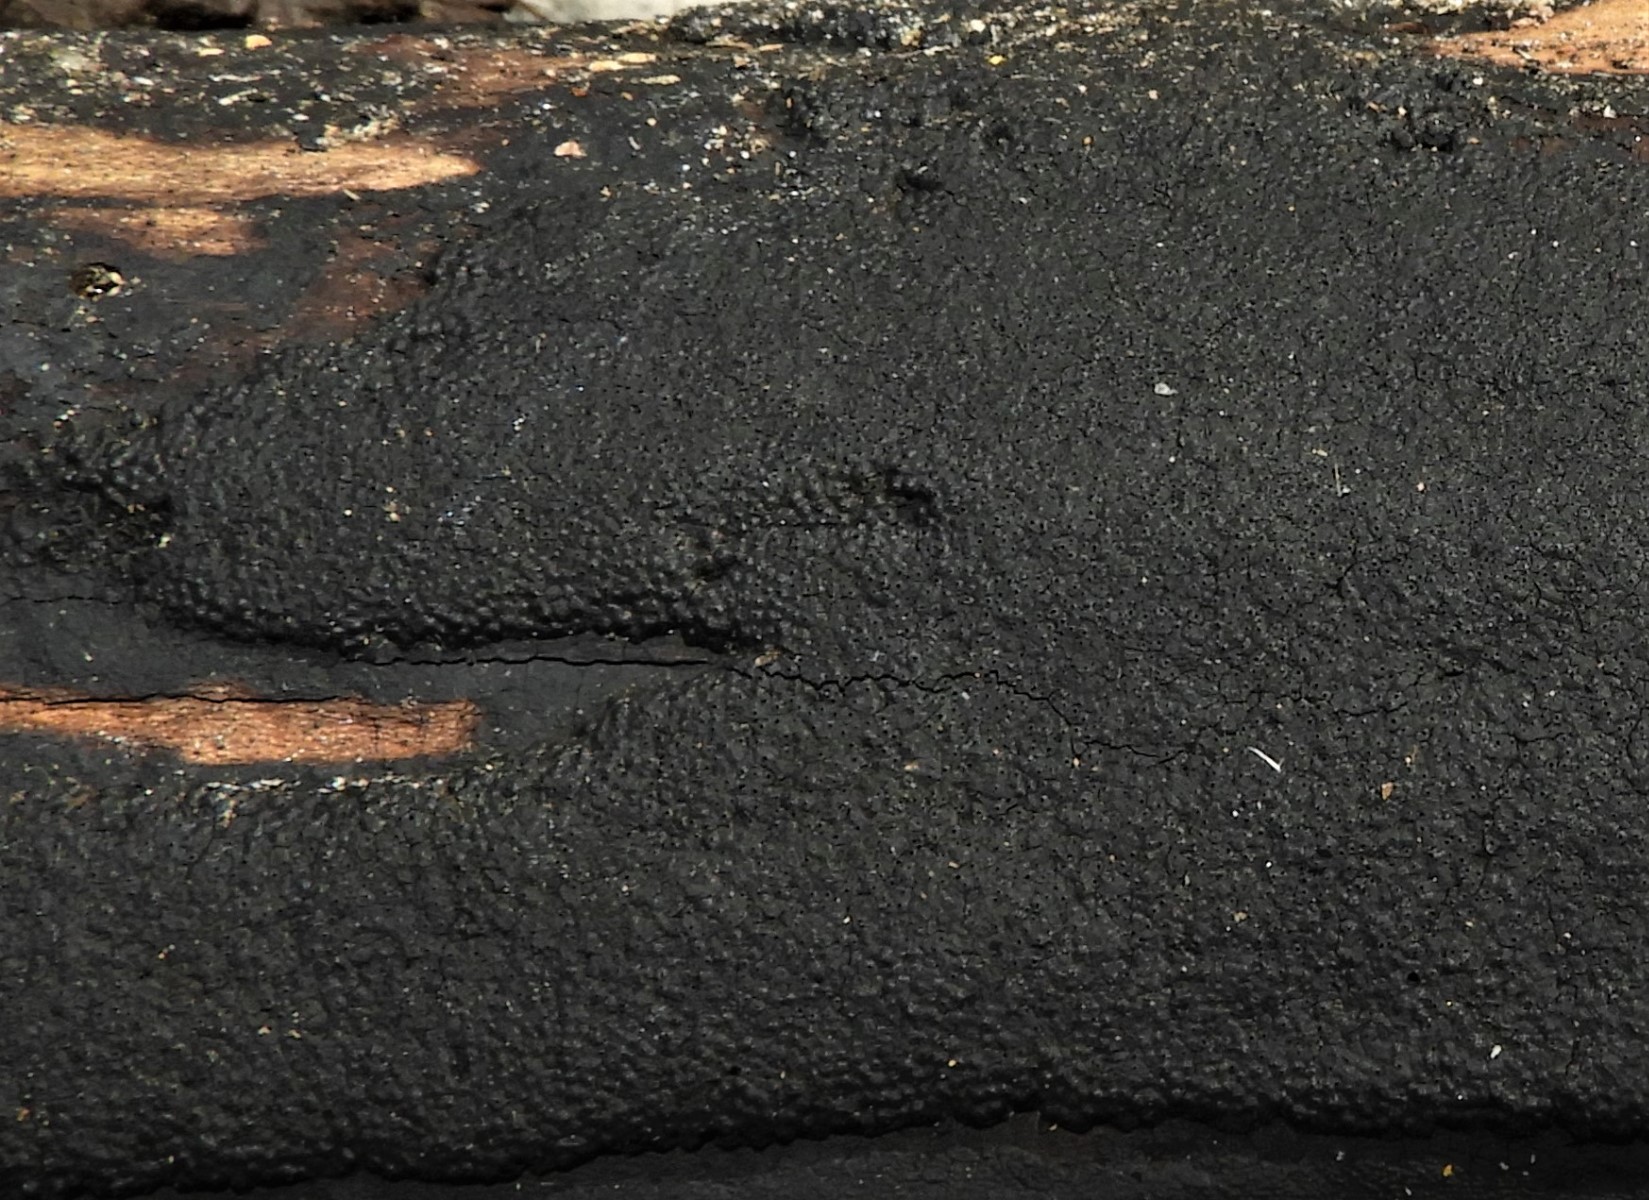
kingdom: Fungi
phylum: Ascomycota
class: Sordariomycetes
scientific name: Sordariomycetes
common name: kernesvampklassen
